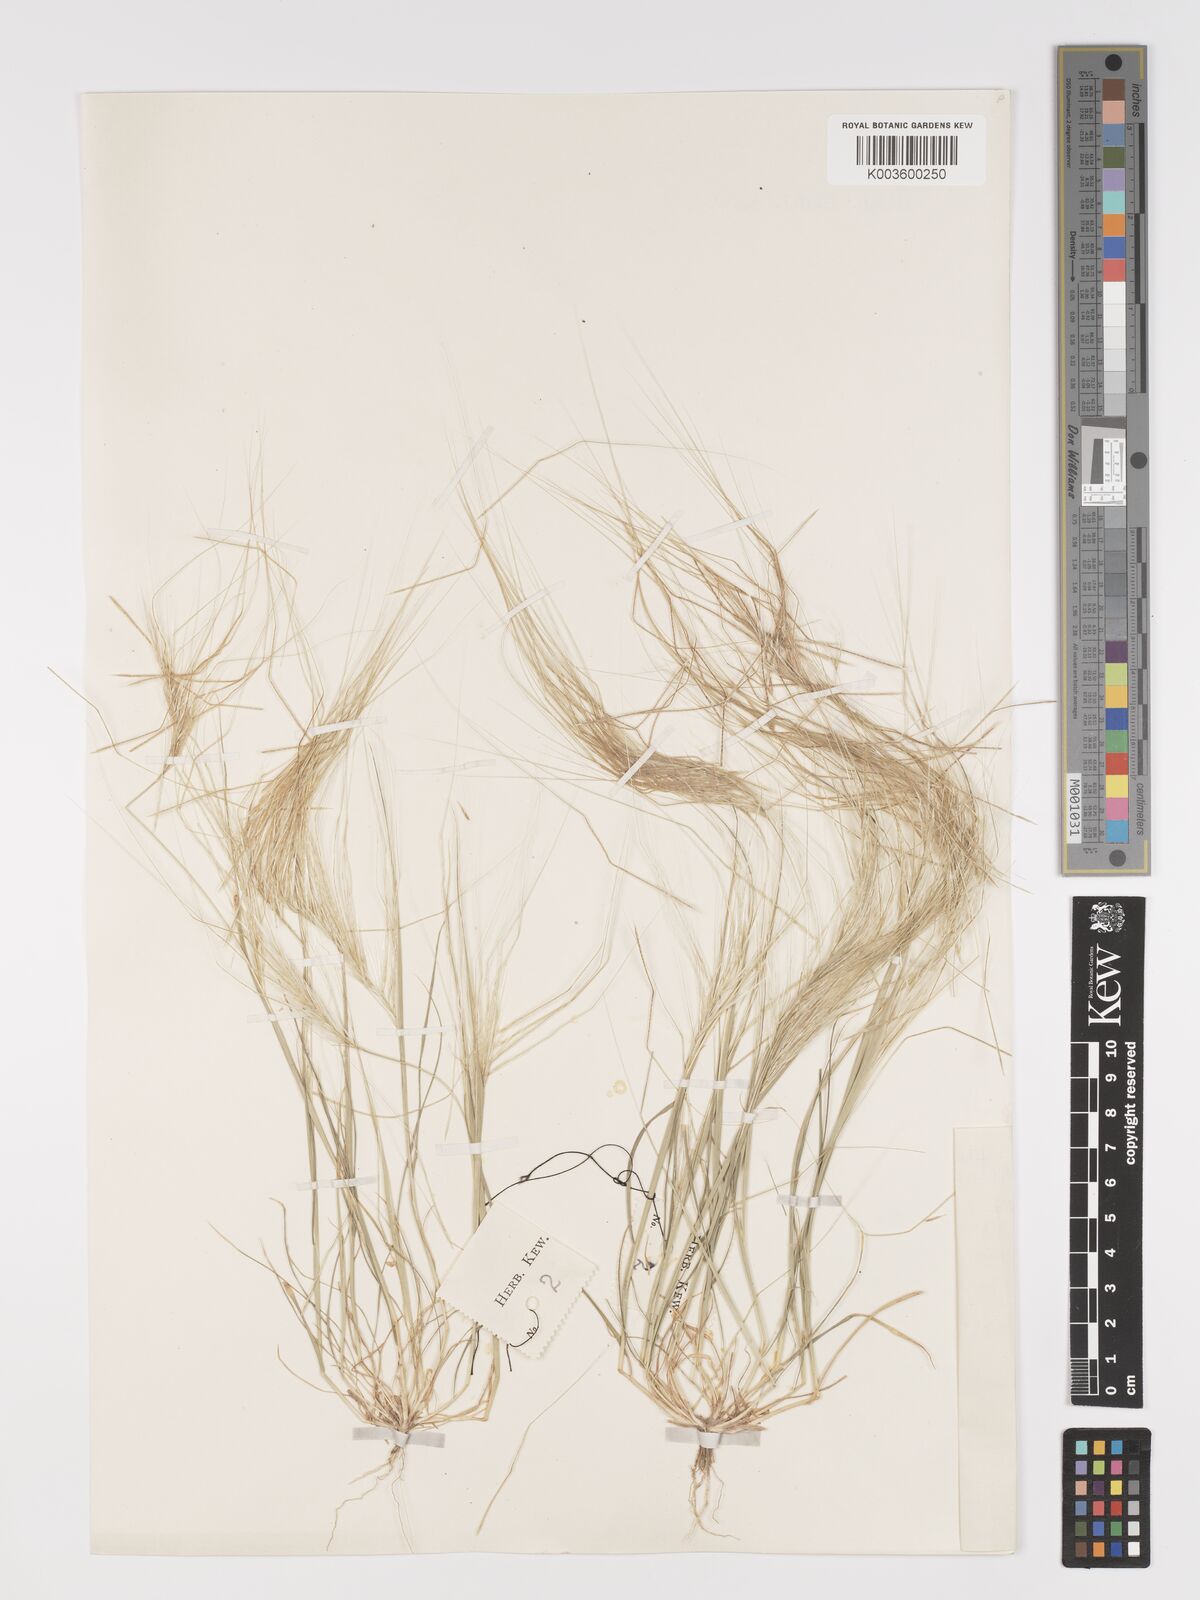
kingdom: Plantae
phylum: Tracheophyta
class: Liliopsida
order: Poales
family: Poaceae
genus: Stipellula
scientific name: Stipellula capensis
